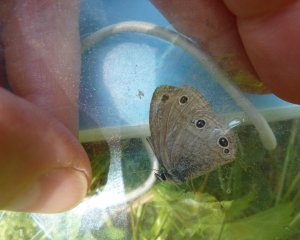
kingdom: Animalia
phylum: Arthropoda
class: Insecta
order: Lepidoptera
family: Nymphalidae
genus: Euptychia
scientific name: Euptychia cymela
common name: Little Wood Satyr
